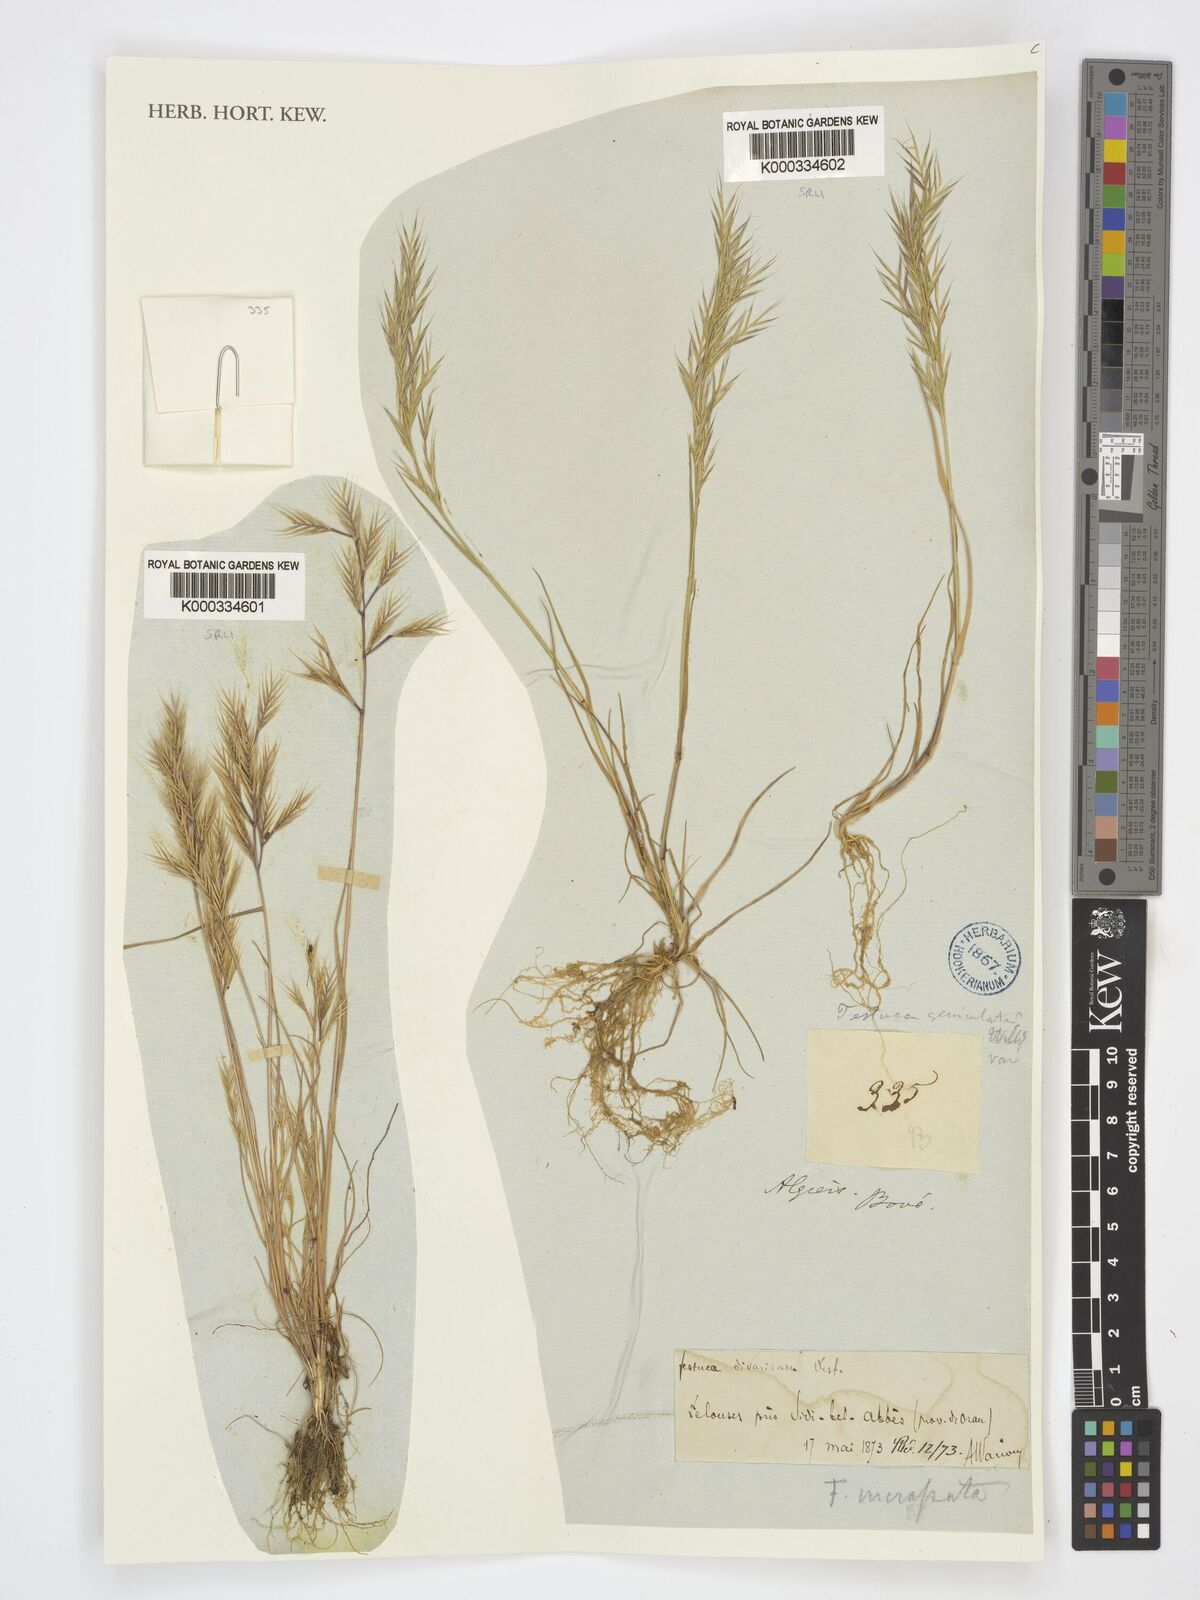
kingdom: Plantae
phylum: Tracheophyta
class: Liliopsida
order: Poales
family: Poaceae
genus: Vulpiella
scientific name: Vulpiella stipoides
